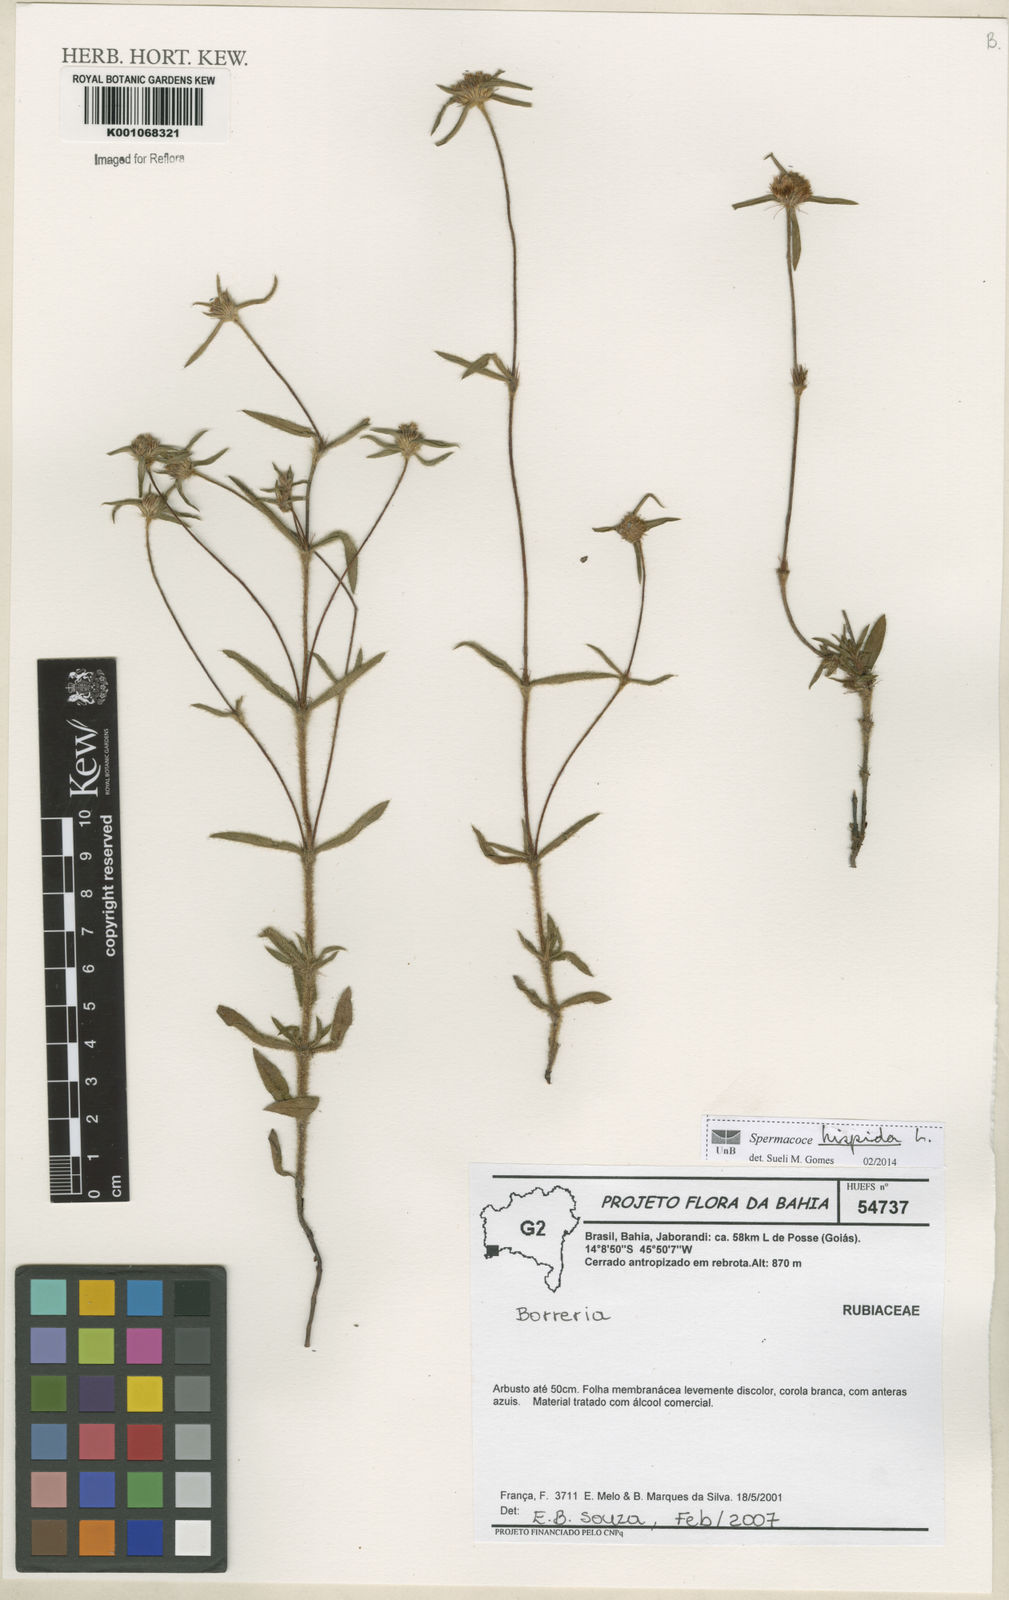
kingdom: Plantae
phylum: Tracheophyta
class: Magnoliopsida
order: Gentianales
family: Rubiaceae
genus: Spermacoce
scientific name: Spermacoce hispida
